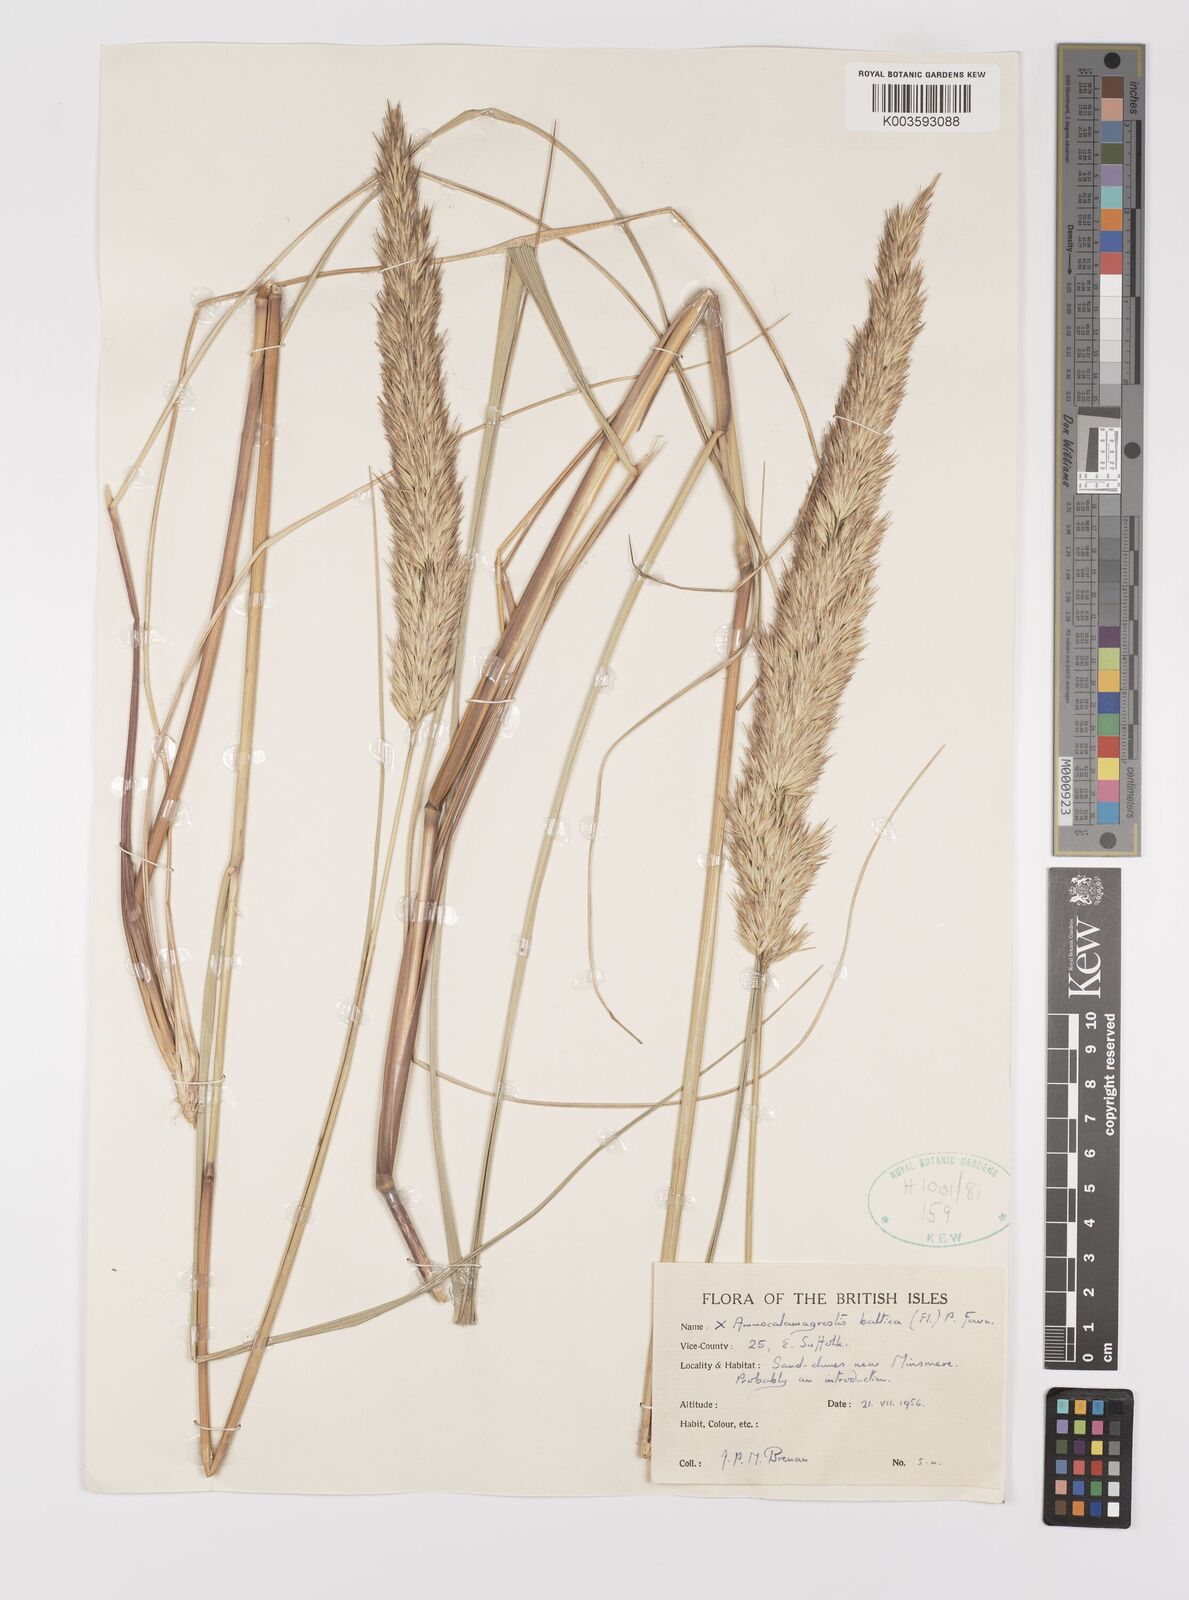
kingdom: Plantae
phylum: Tracheophyta
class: Liliopsida
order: Poales
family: Poaceae
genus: Calamagrostis
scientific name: Calamagrostis baltica
